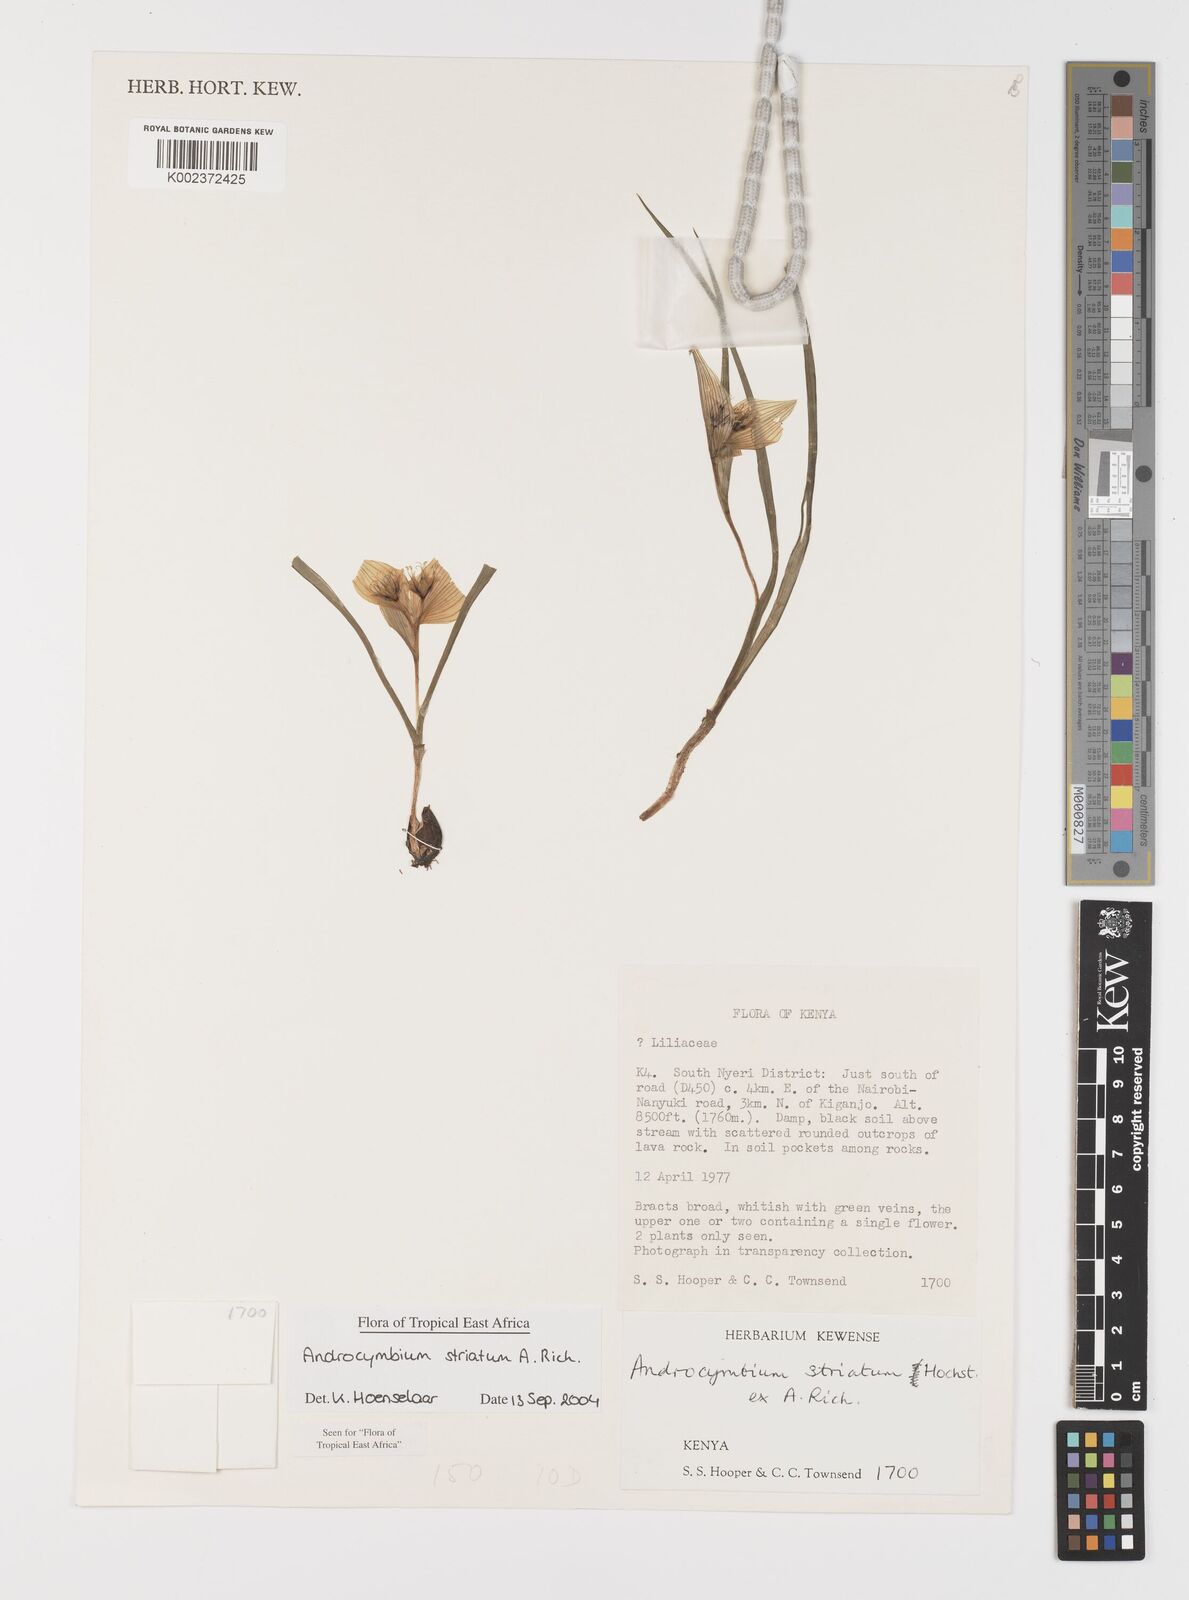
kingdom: Plantae
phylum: Tracheophyta
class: Liliopsida
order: Liliales
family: Colchicaceae
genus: Colchicum
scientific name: Colchicum striatum
